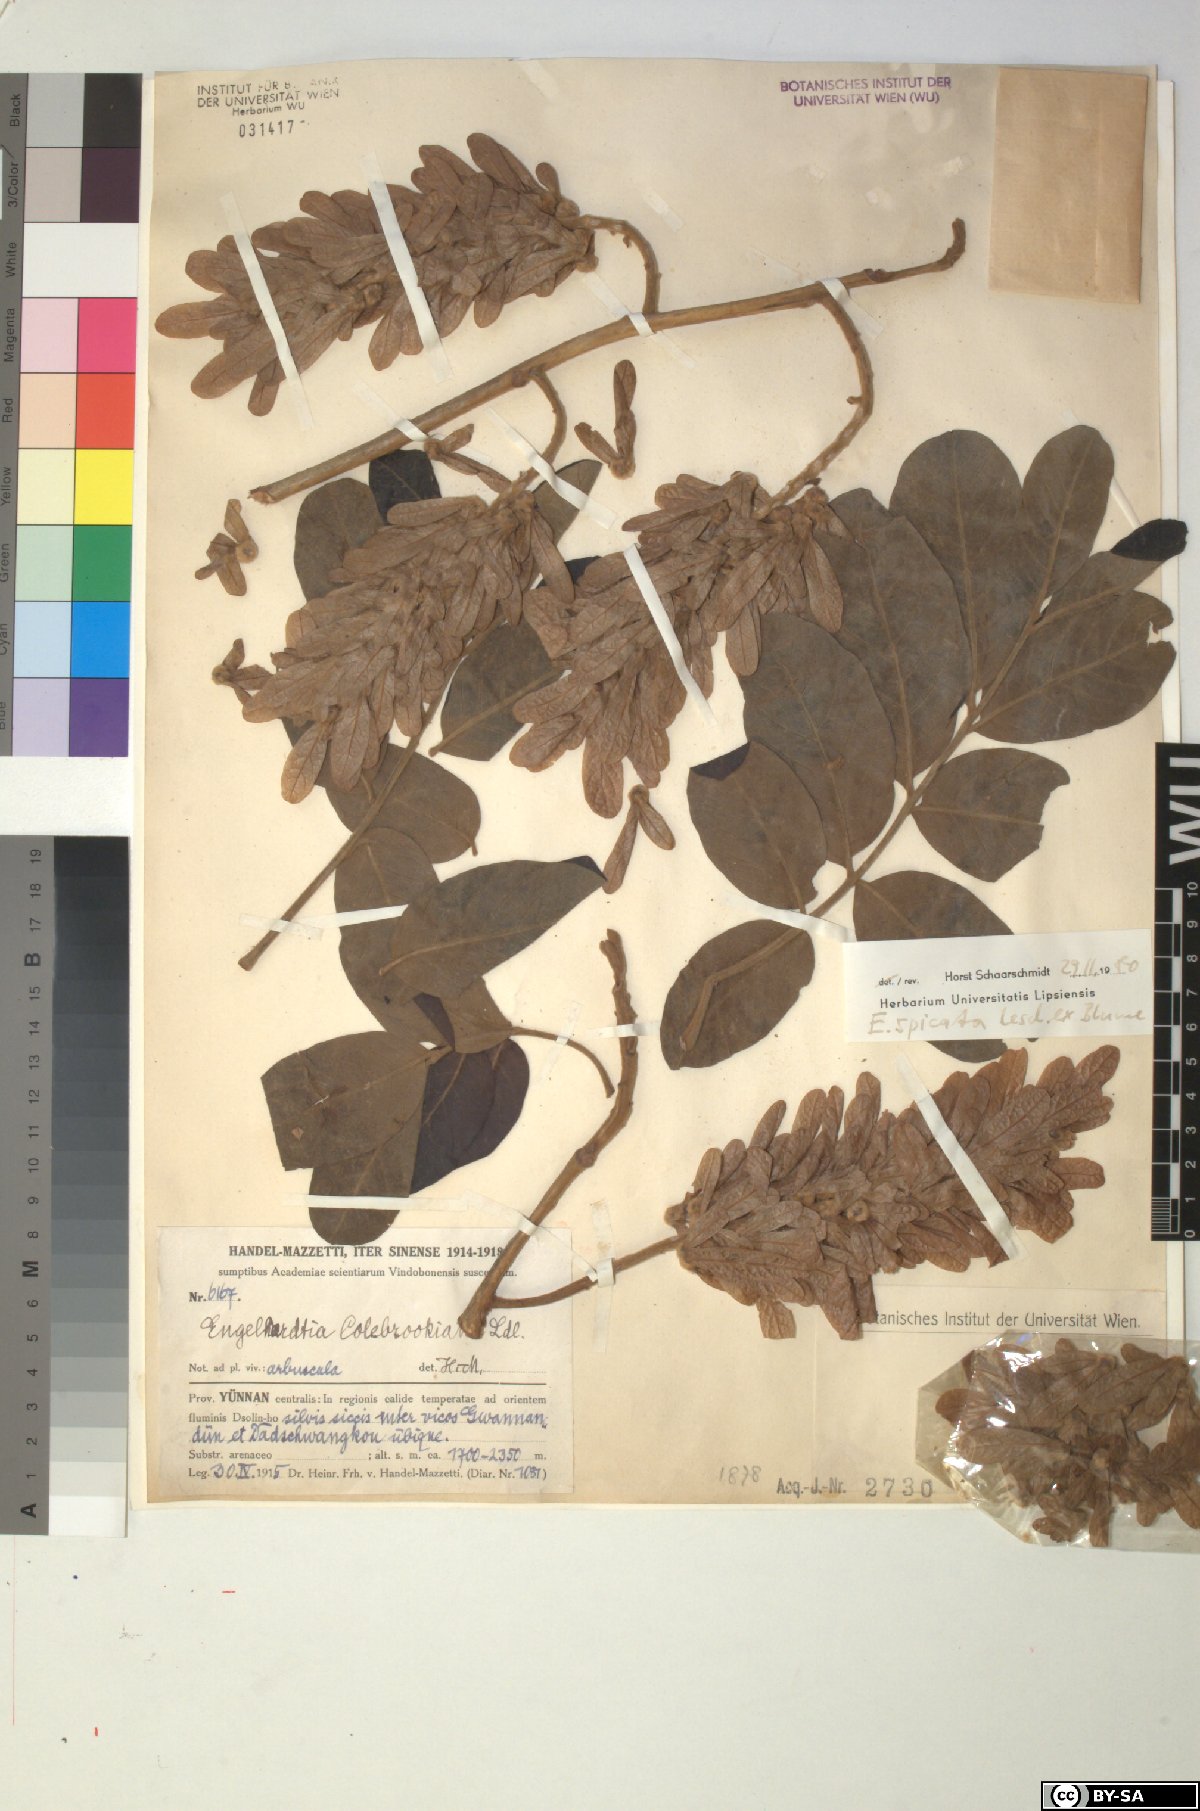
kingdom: Plantae
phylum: Tracheophyta
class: Magnoliopsida
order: Fagales
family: Juglandaceae
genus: Engelhardia
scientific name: Engelhardia spicata
